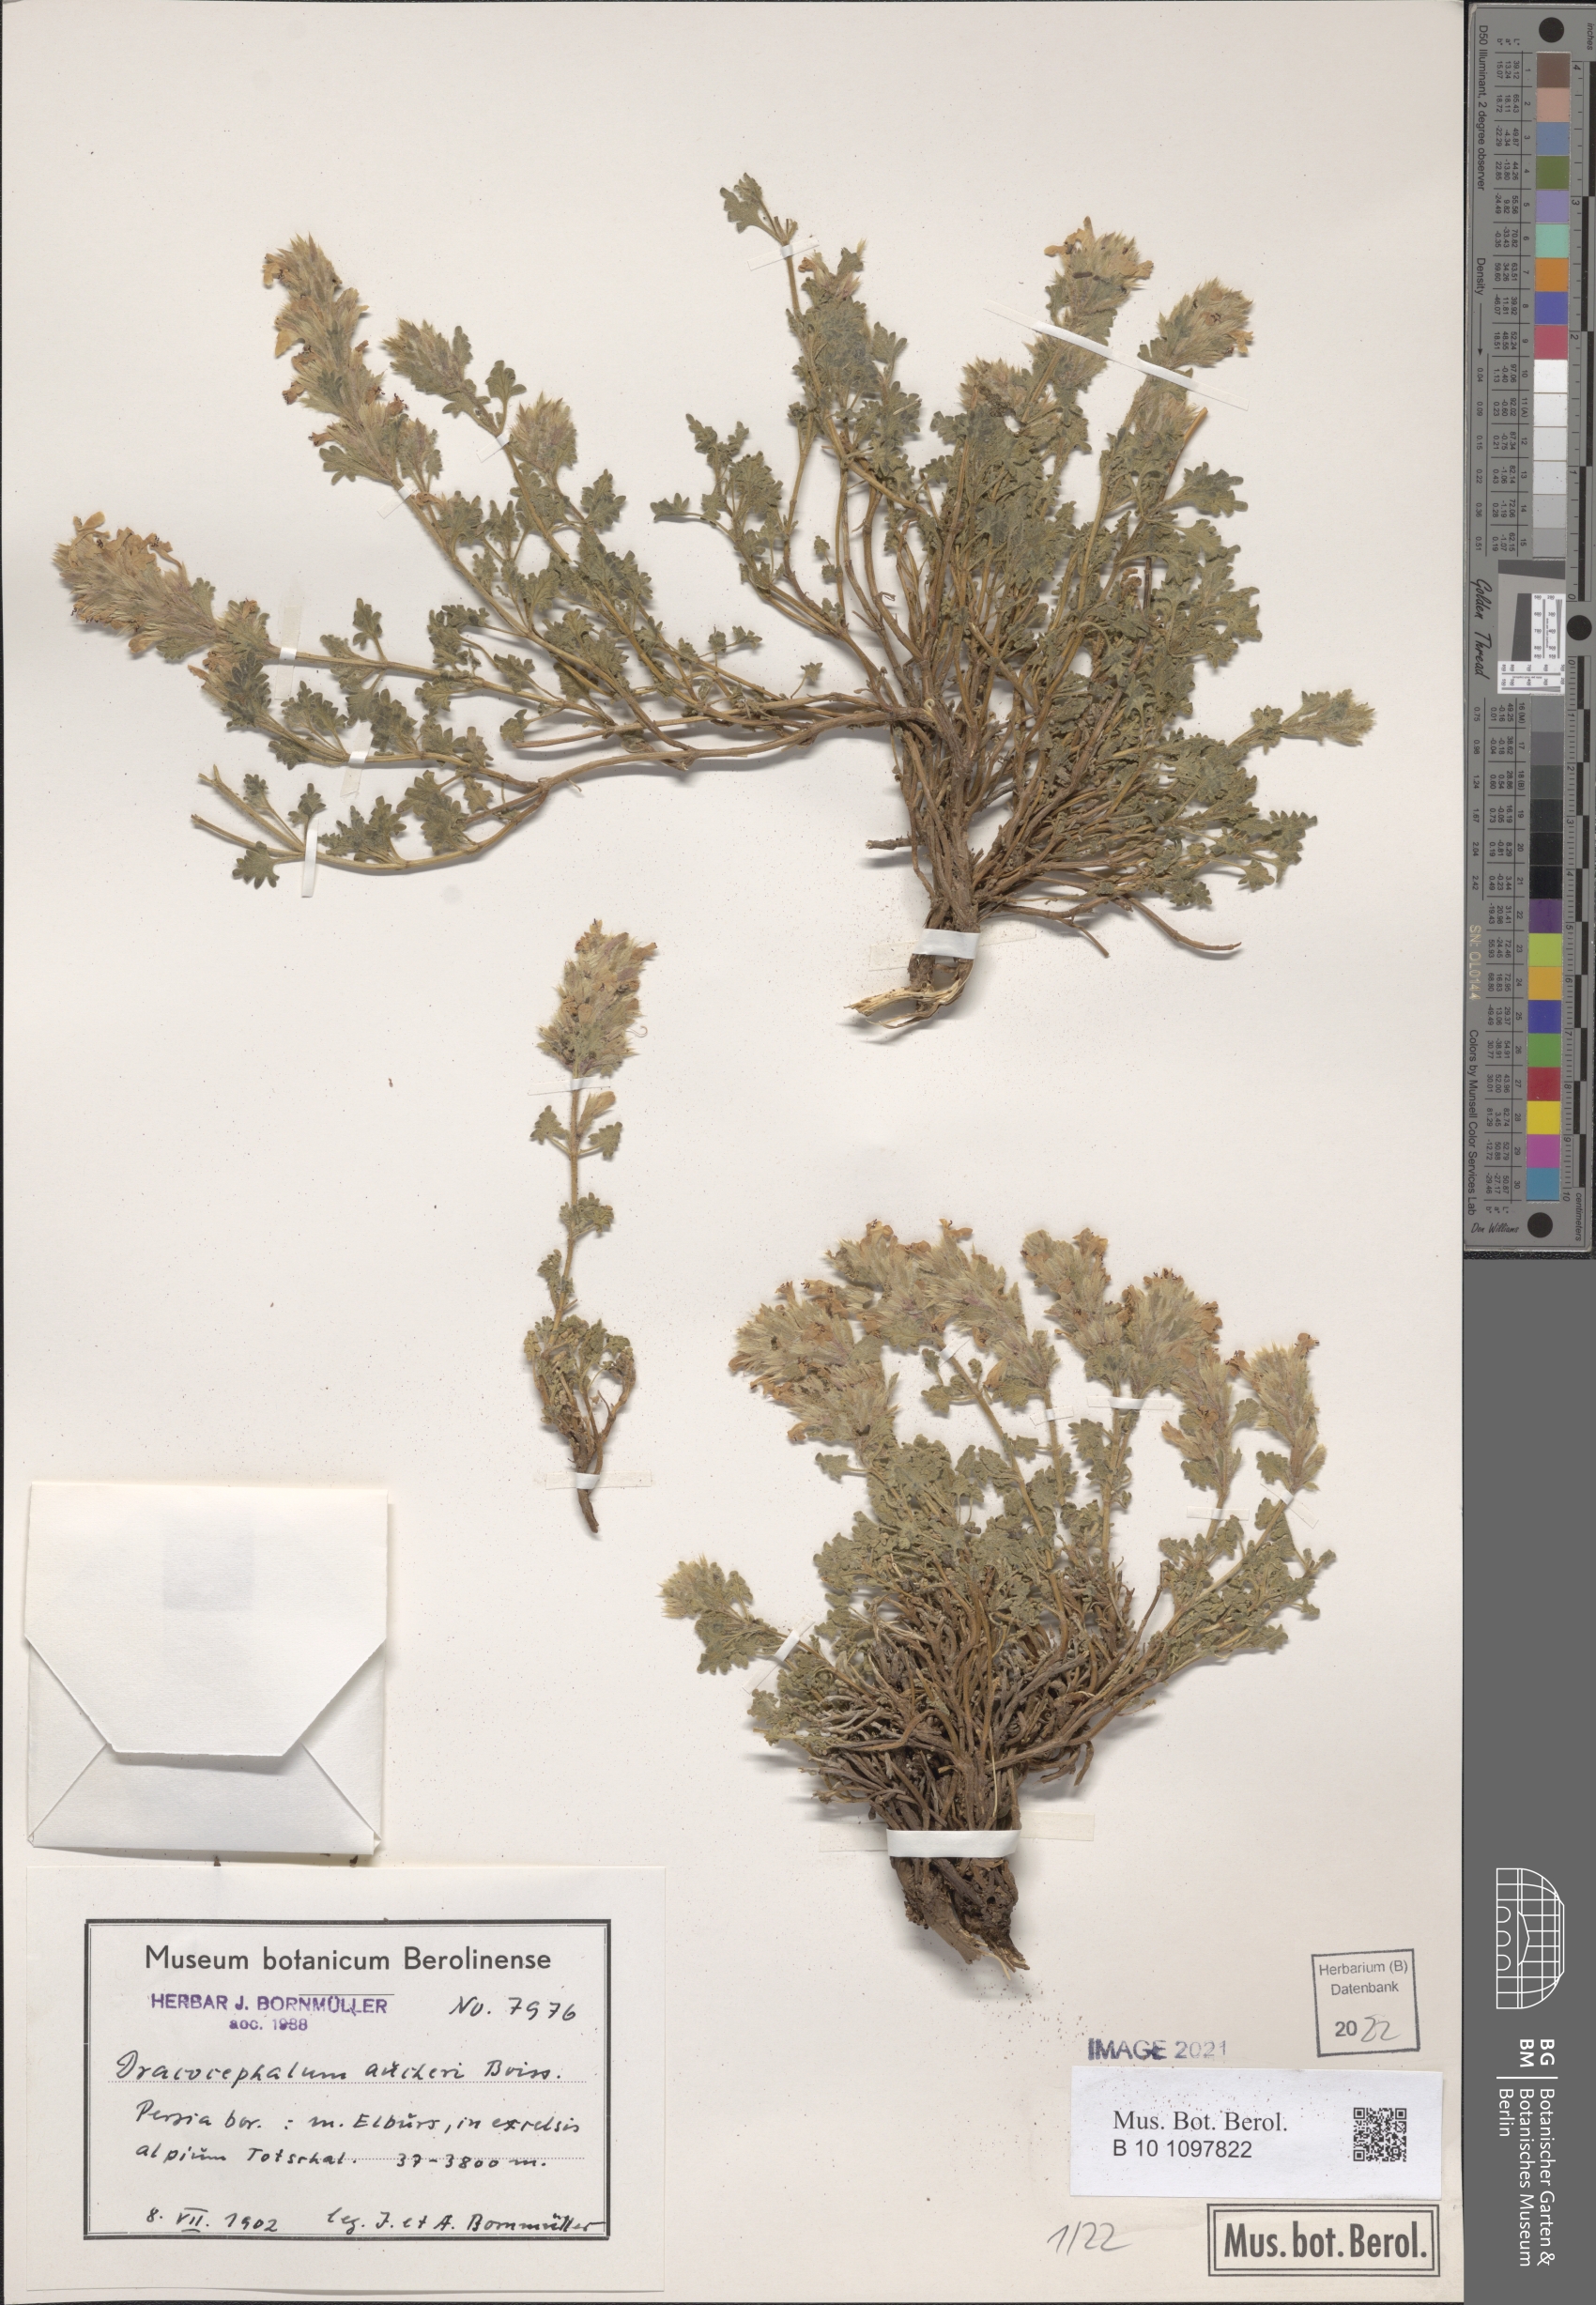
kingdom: Plantae
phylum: Tracheophyta
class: Magnoliopsida
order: Lamiales
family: Lamiaceae
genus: Dracocephalum
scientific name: Dracocephalum aucheri
